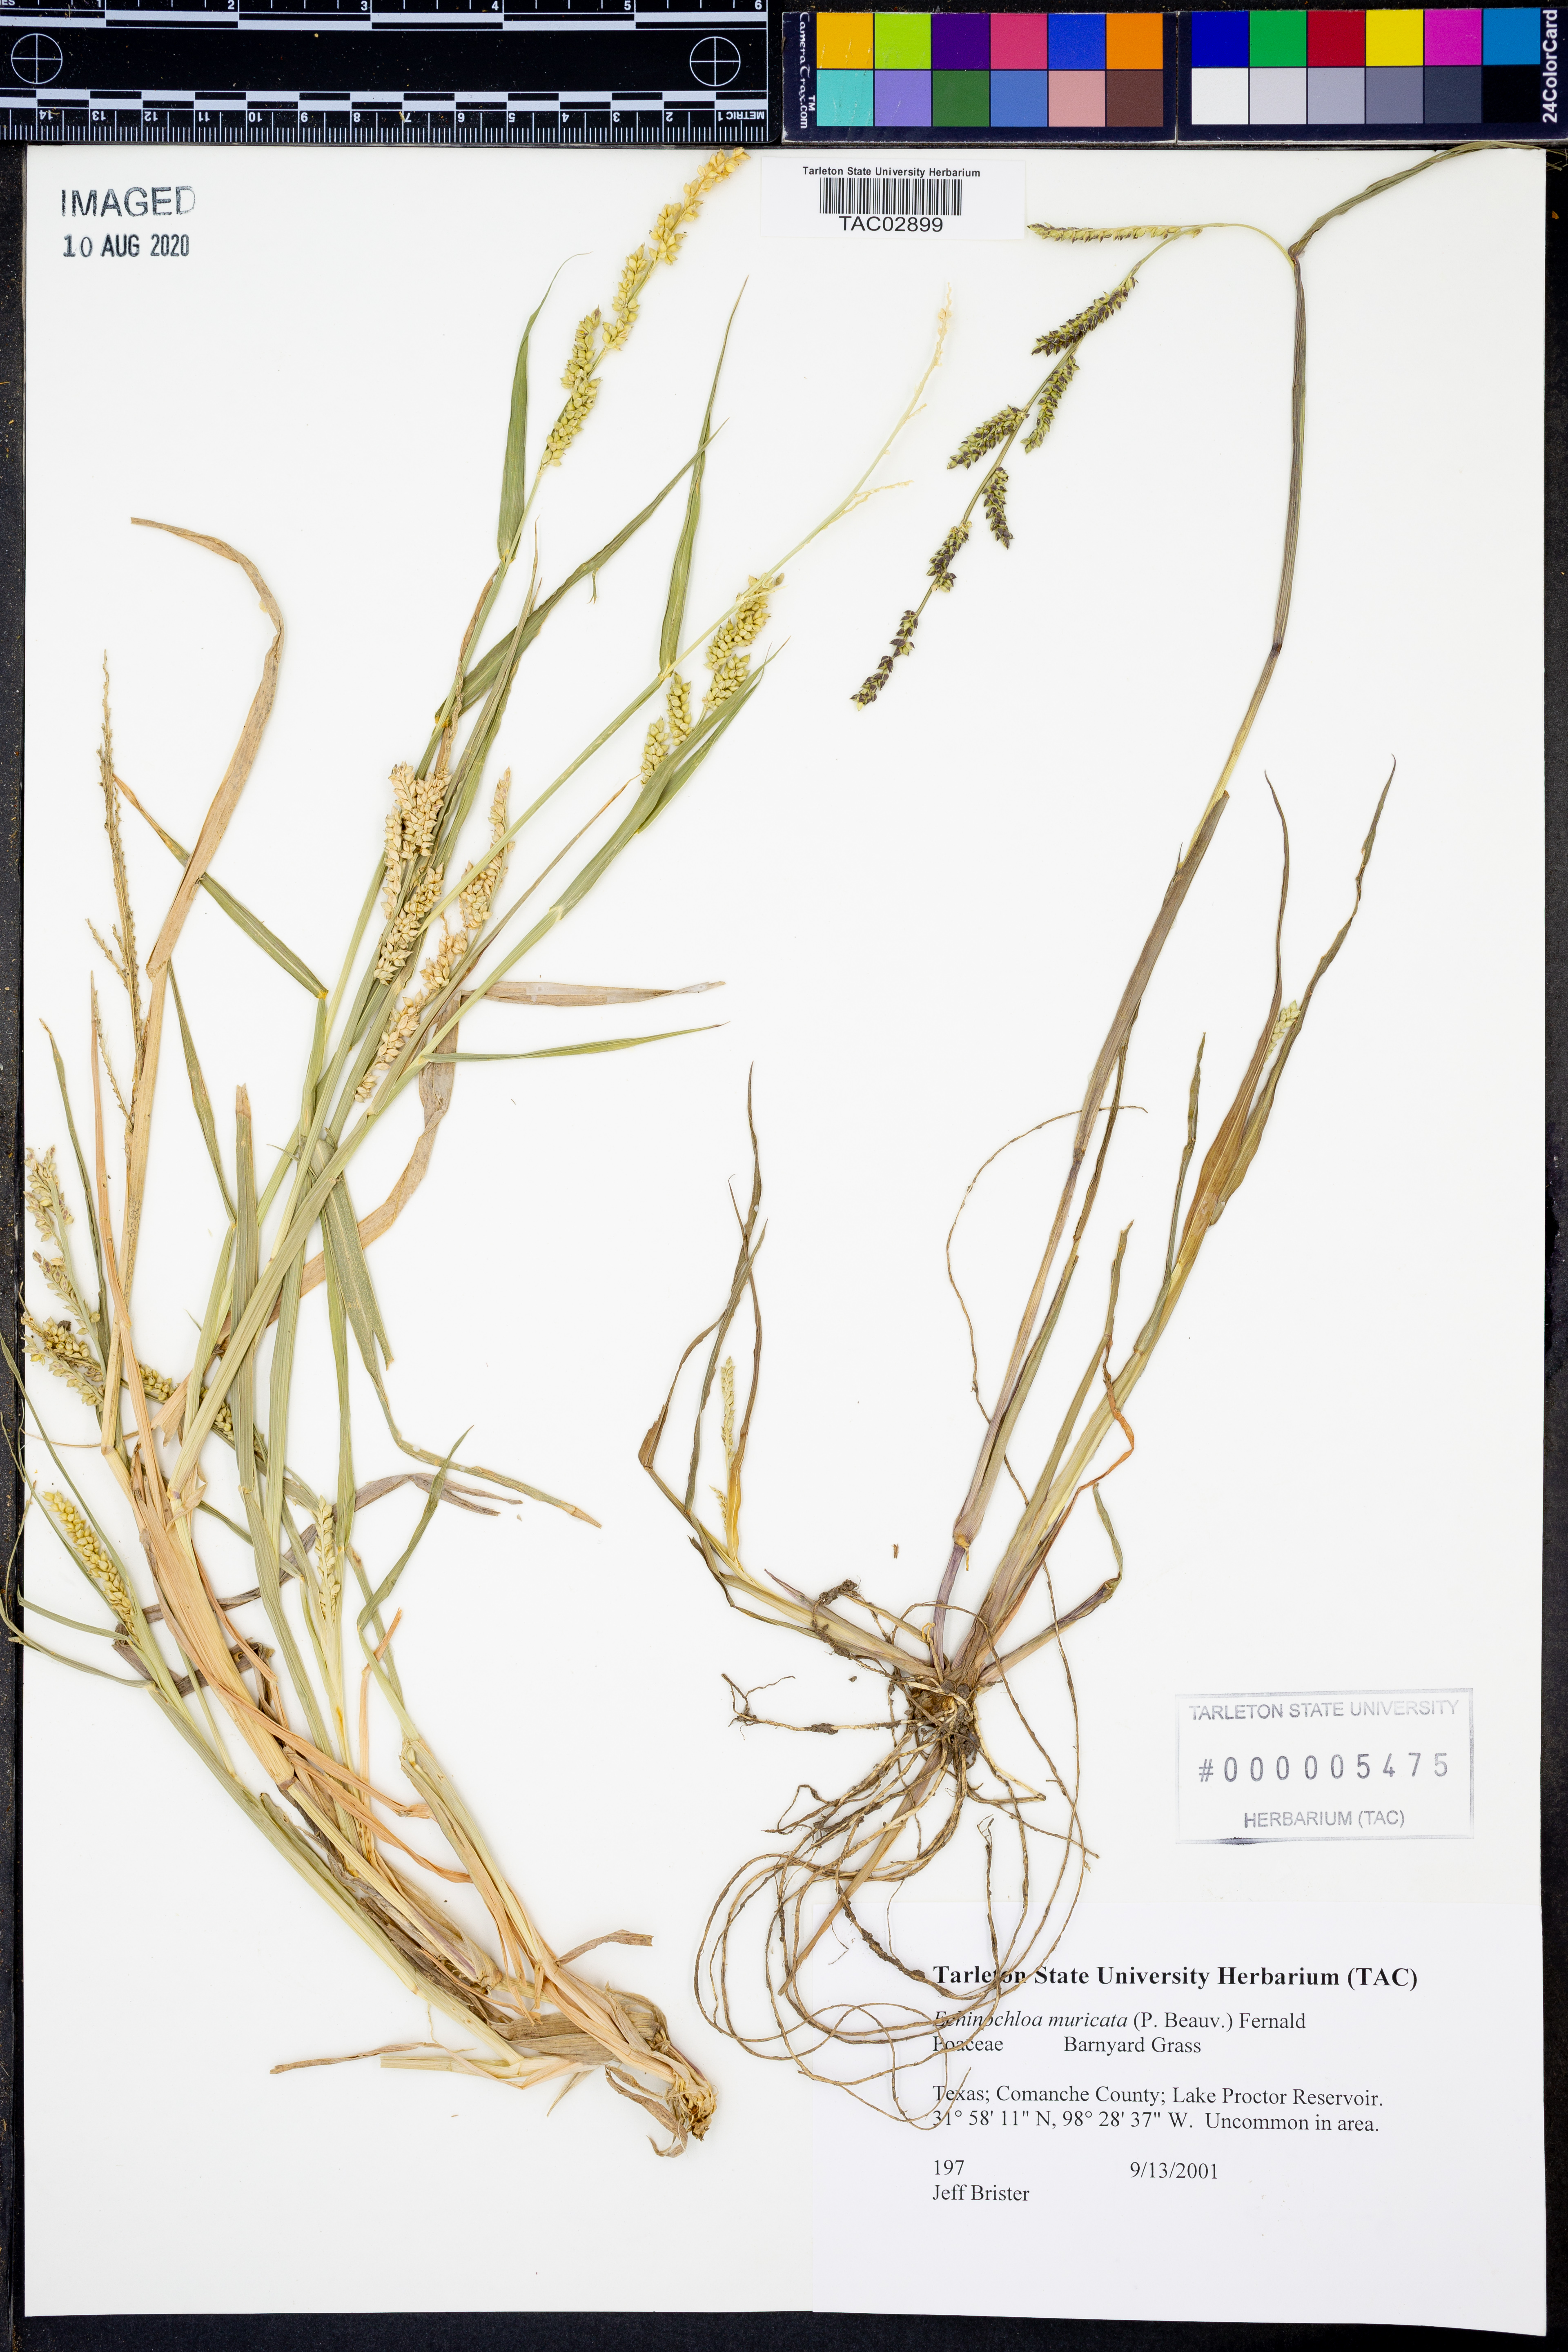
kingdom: Plantae
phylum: Tracheophyta
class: Liliopsida
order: Poales
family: Poaceae
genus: Echinochloa
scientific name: Echinochloa muricata
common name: American barnyard grass
